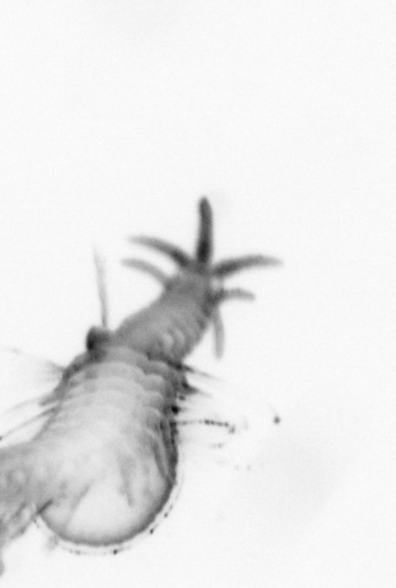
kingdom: Animalia
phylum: Annelida
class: Polychaeta
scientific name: Polychaeta
